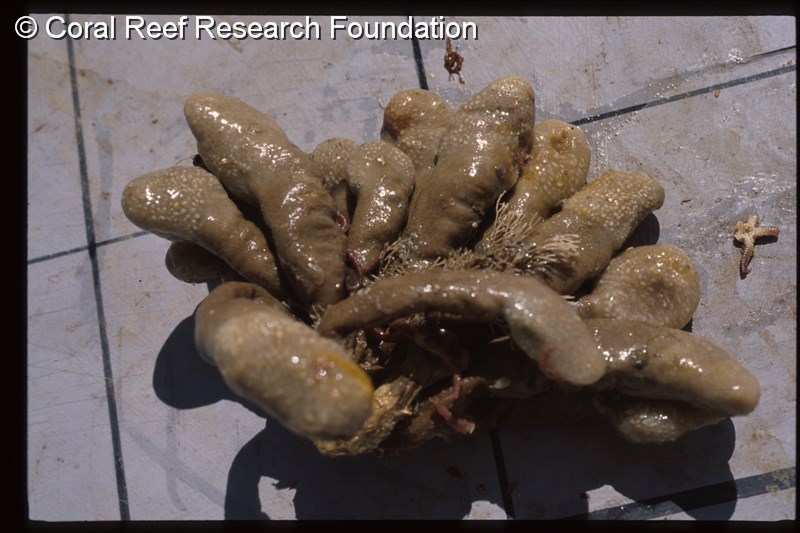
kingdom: Animalia
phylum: Chordata
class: Ascidiacea
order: Aplousobranchia
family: Pseudodistomidae
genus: Pseudodistoma
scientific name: Pseudodistoma africanum
